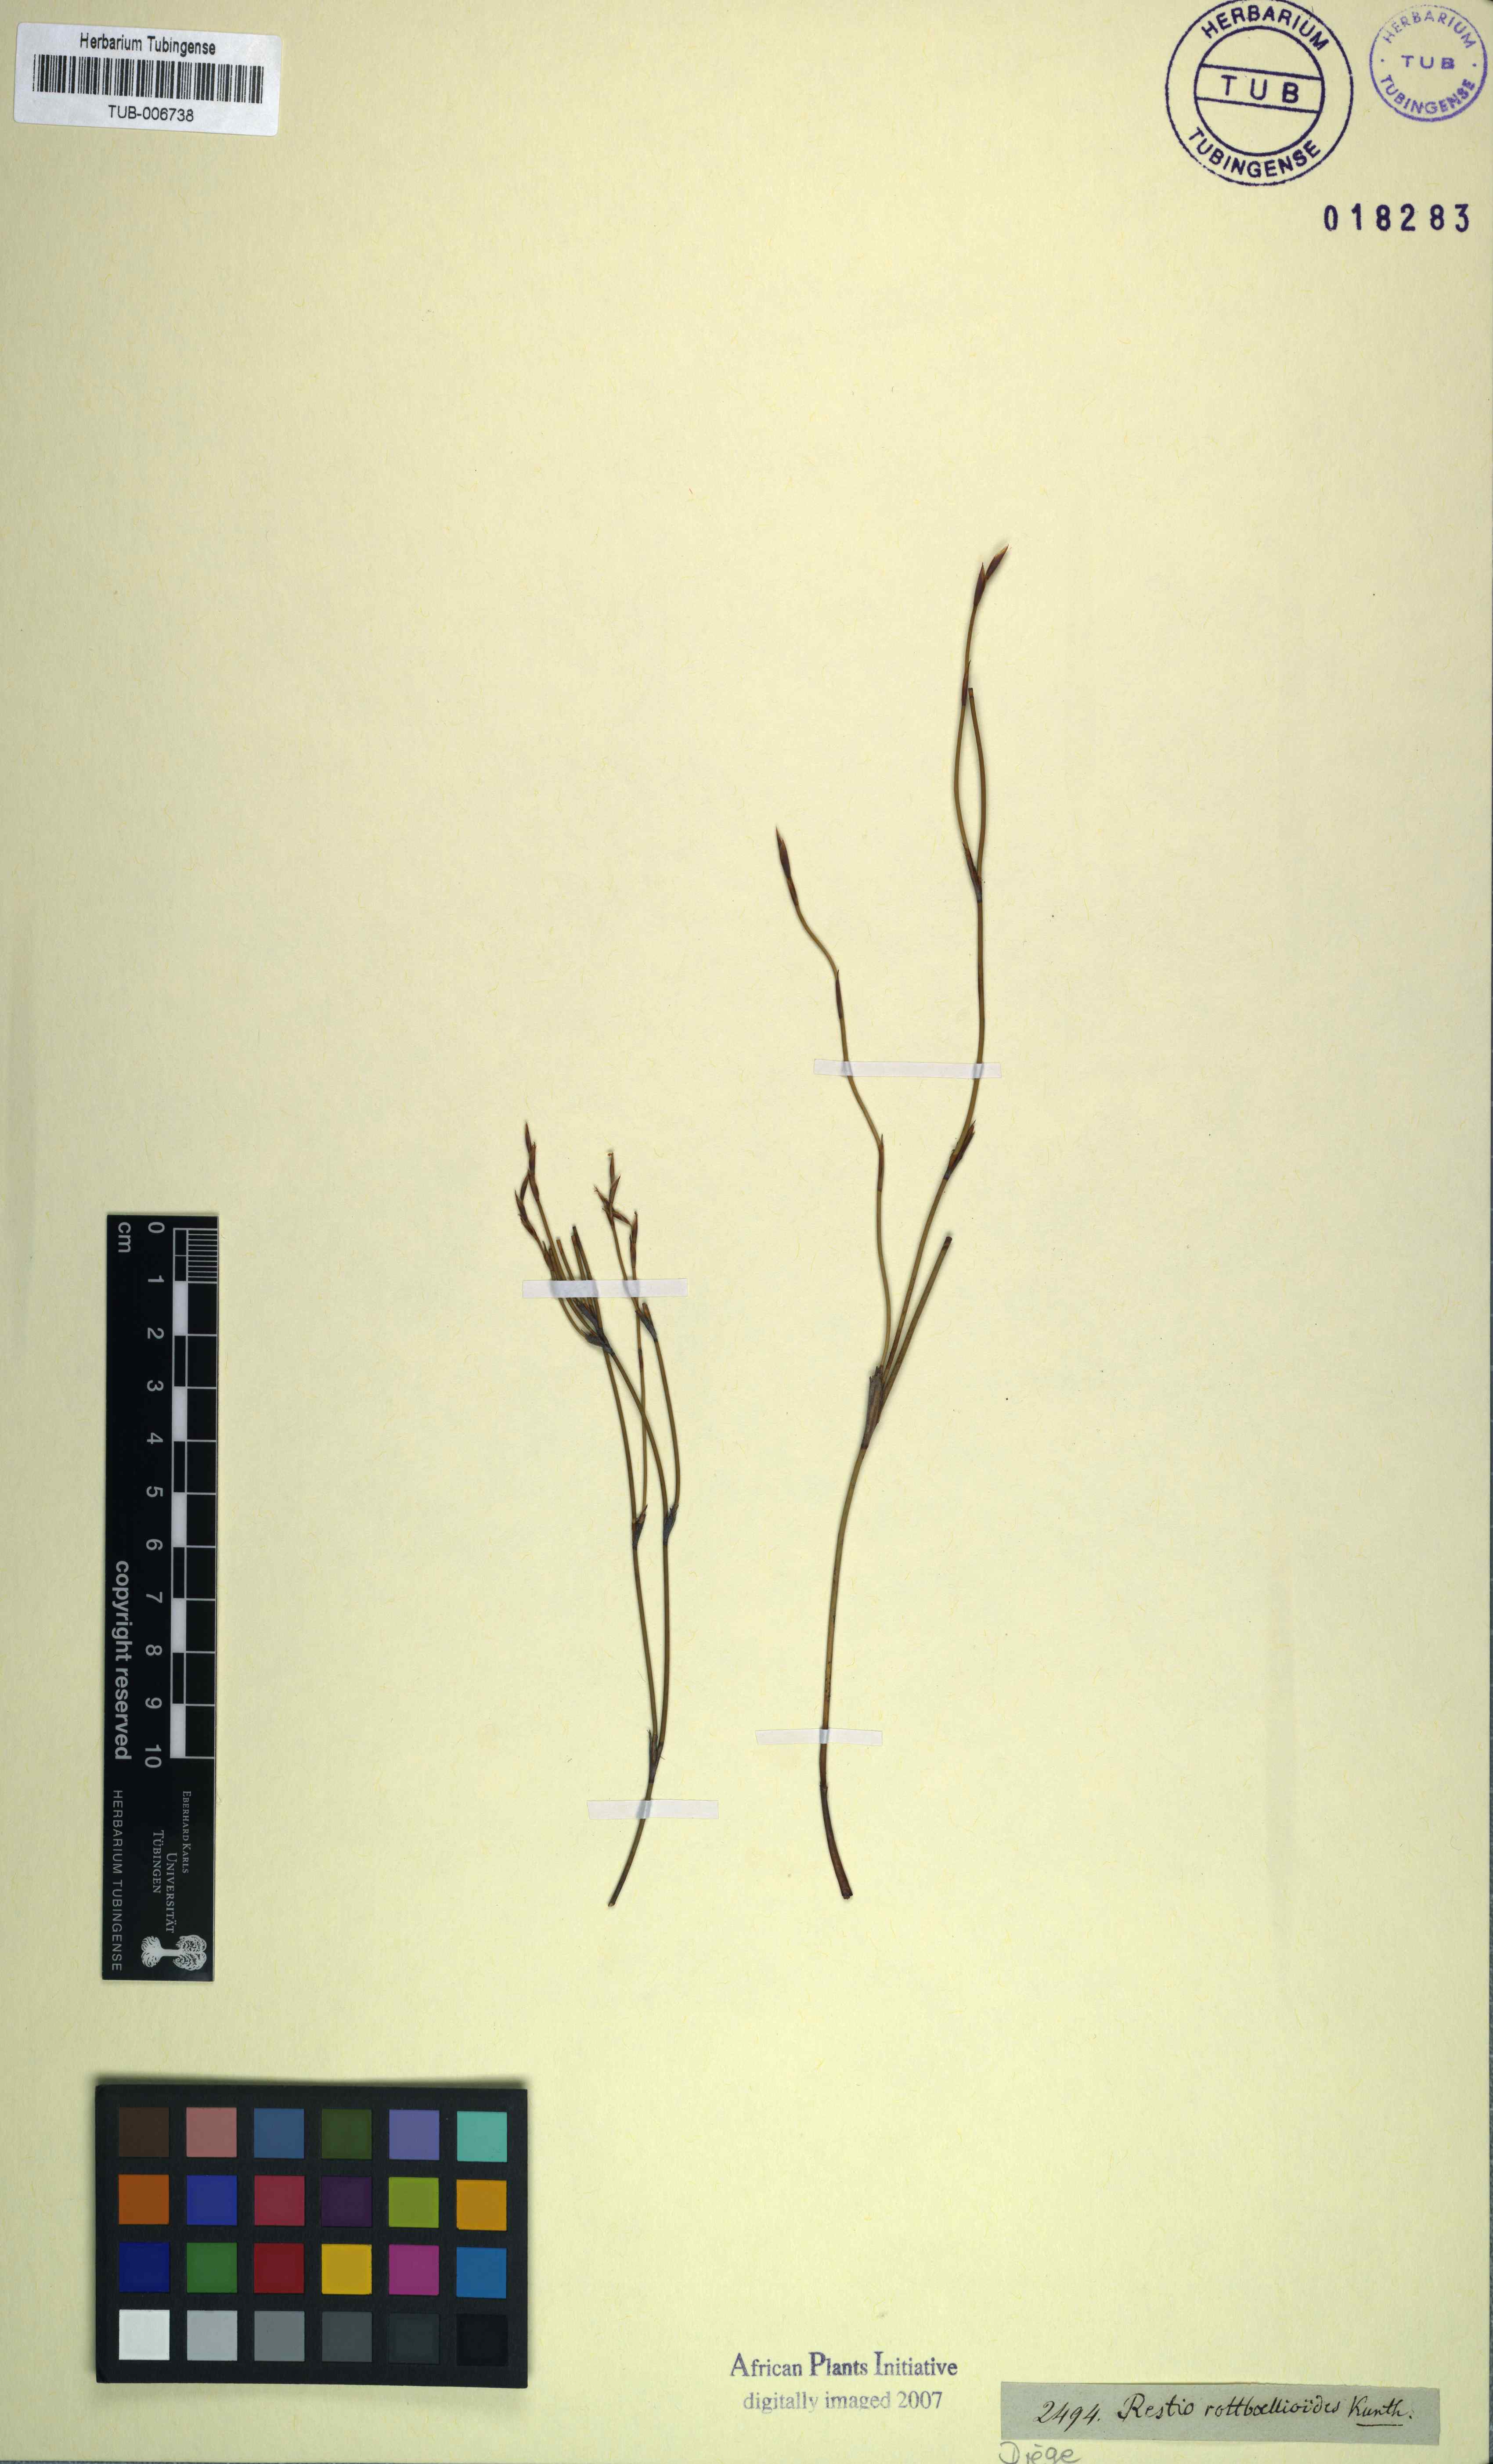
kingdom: Plantae
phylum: Tracheophyta
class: Liliopsida
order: Poales
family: Restionaceae
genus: Restio
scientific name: Restio rottboellioides
